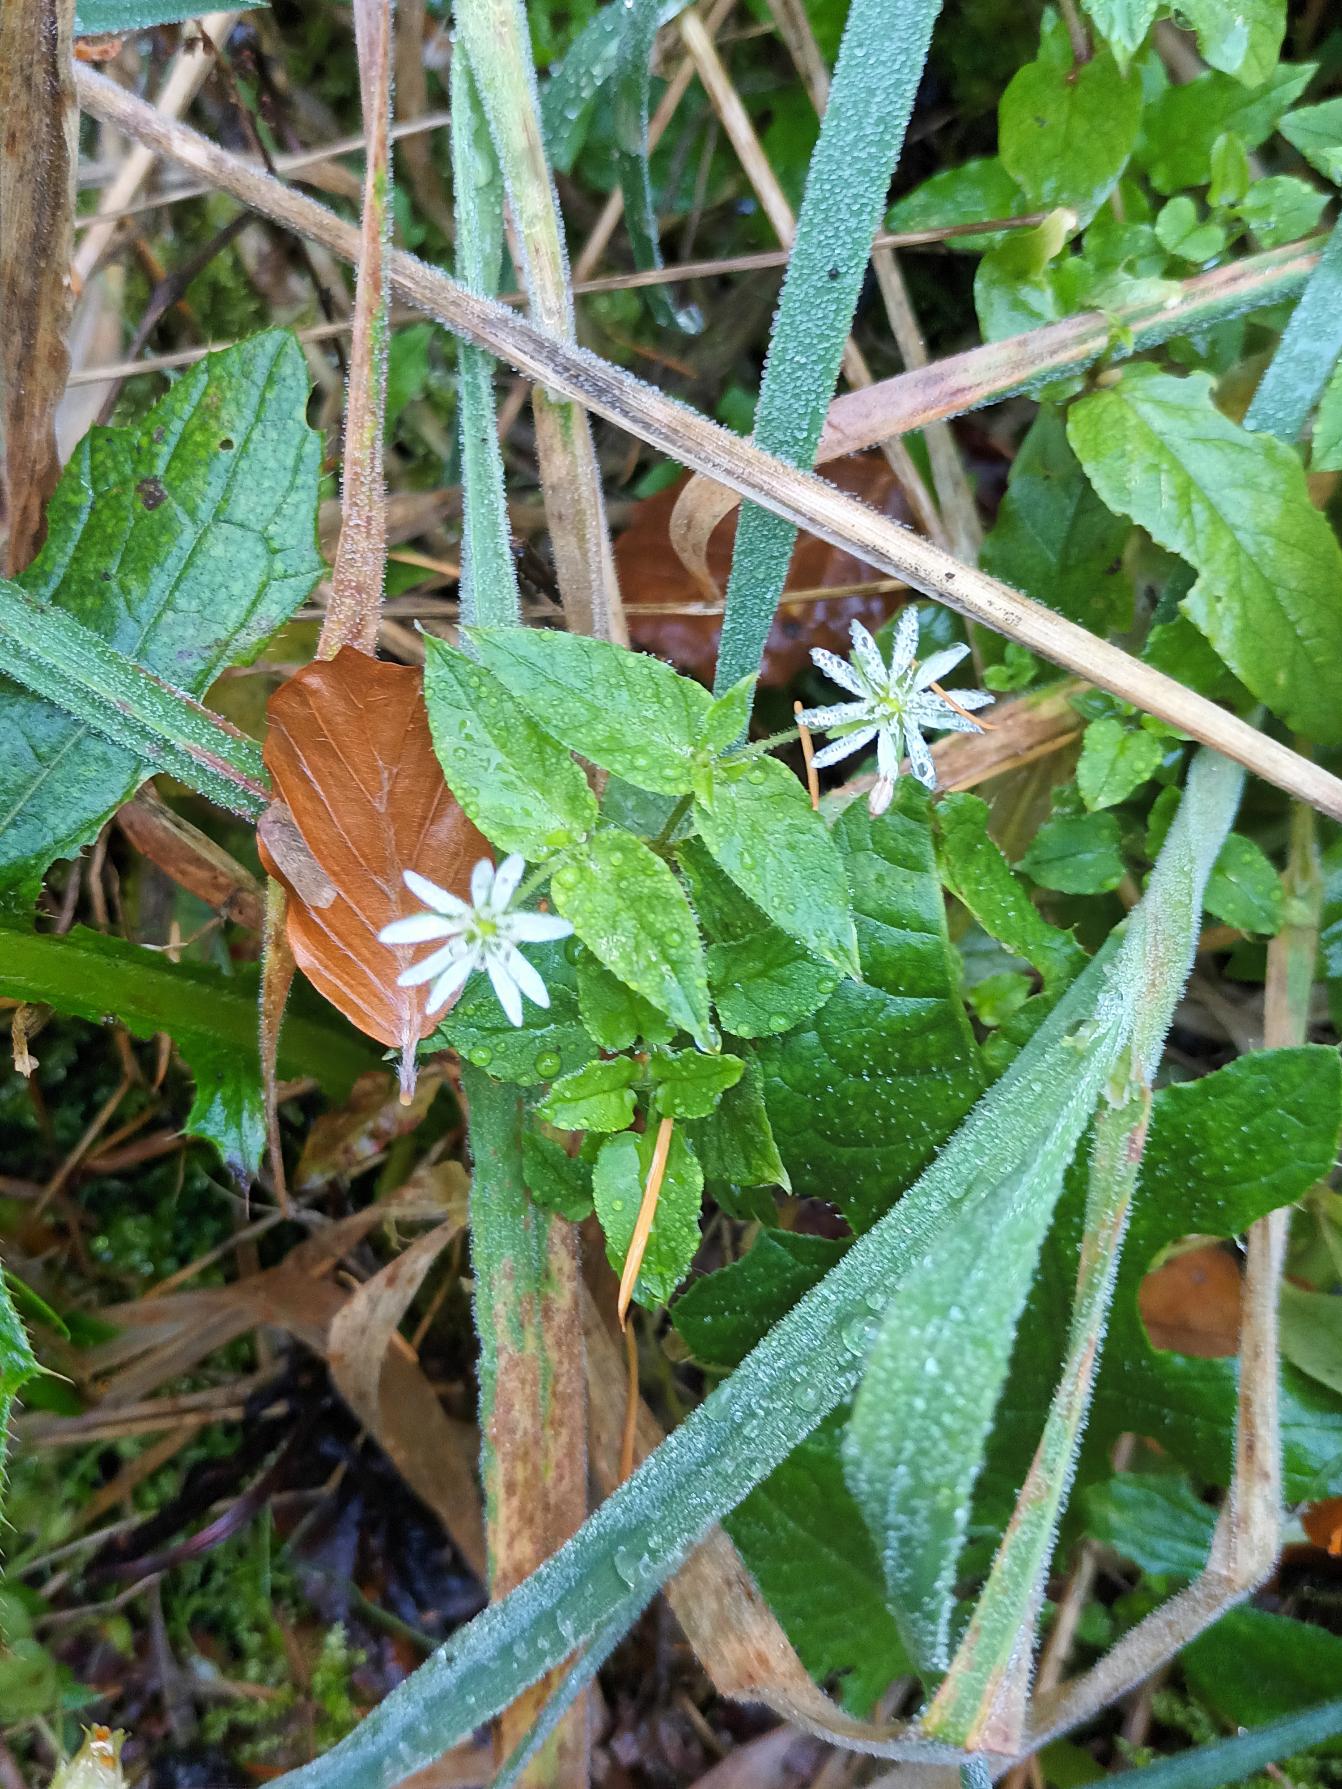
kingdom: Plantae
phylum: Tracheophyta
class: Magnoliopsida
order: Caryophyllales
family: Caryophyllaceae
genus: Stellaria
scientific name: Stellaria aquatica
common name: Kløvkrone
